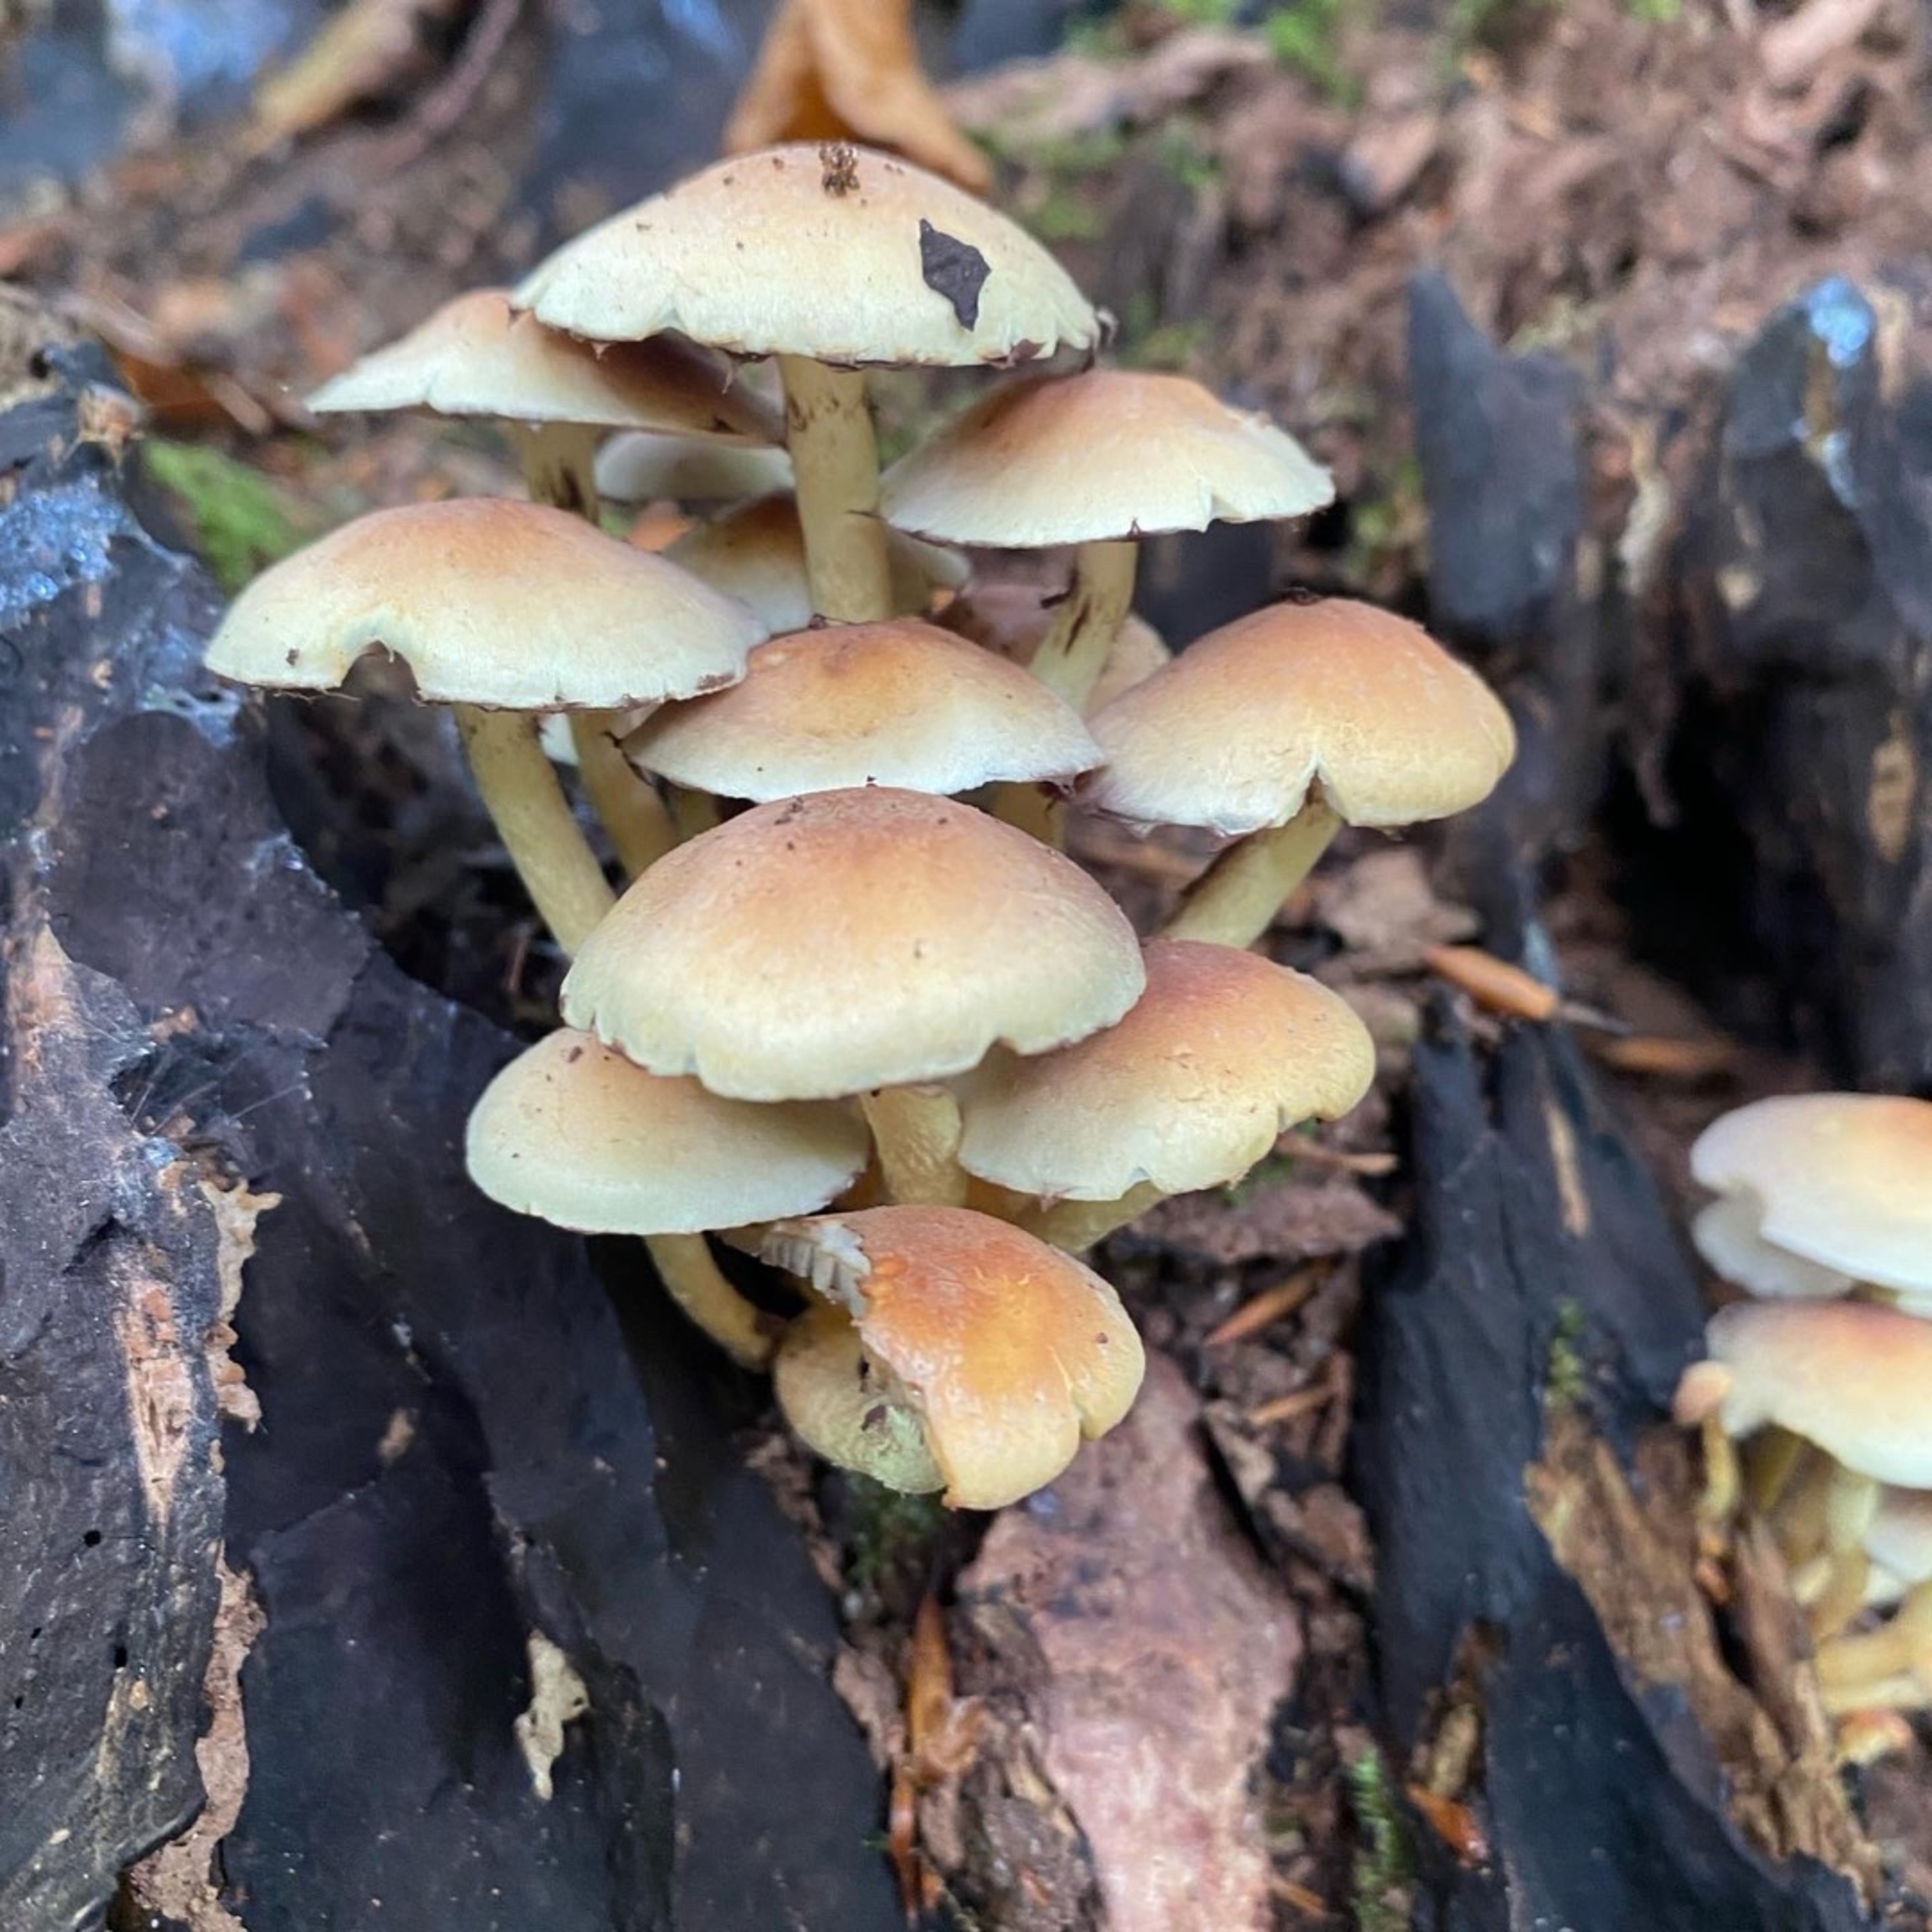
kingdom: Fungi
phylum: Basidiomycota
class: Agaricomycetes
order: Agaricales
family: Strophariaceae
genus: Hypholoma
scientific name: Hypholoma fasciculare
